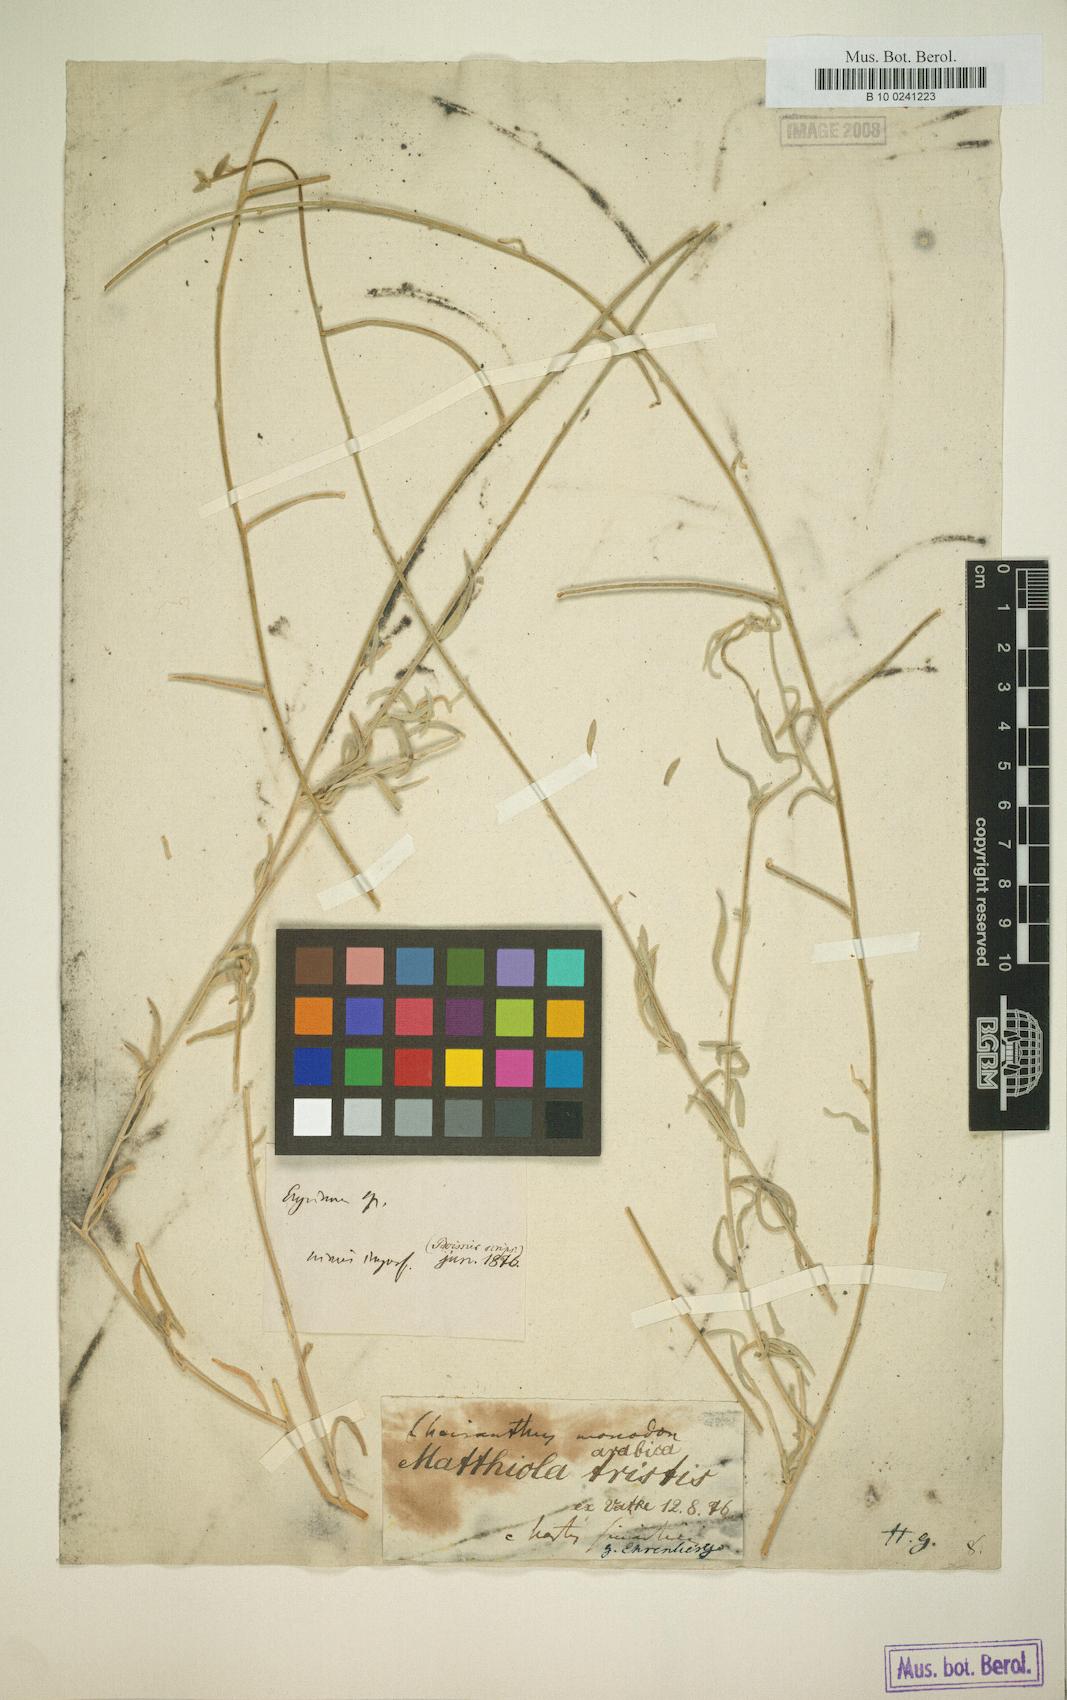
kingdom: Plantae
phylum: Tracheophyta
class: Magnoliopsida
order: Brassicales
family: Brassicaceae
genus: Matthiola
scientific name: Matthiola arabica
